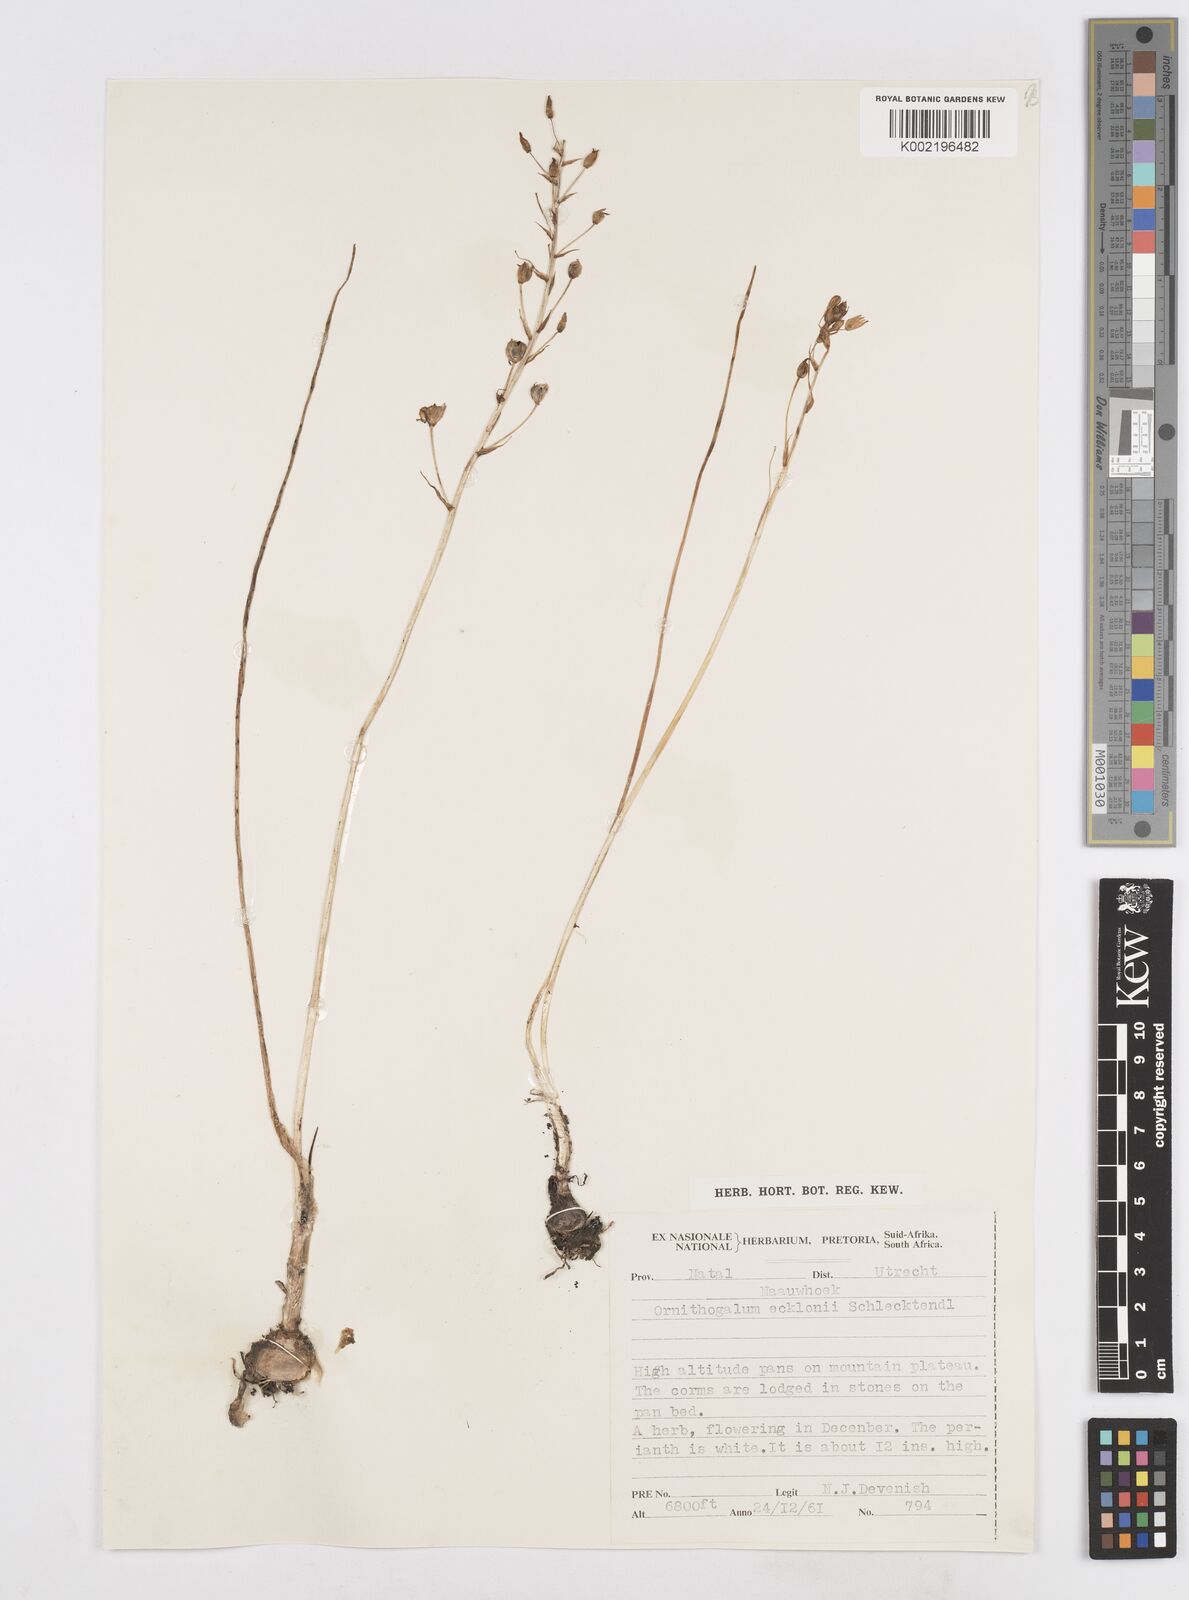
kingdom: Plantae
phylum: Tracheophyta
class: Liliopsida
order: Asparagales
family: Asparagaceae
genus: Albuca
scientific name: Albuca virens
